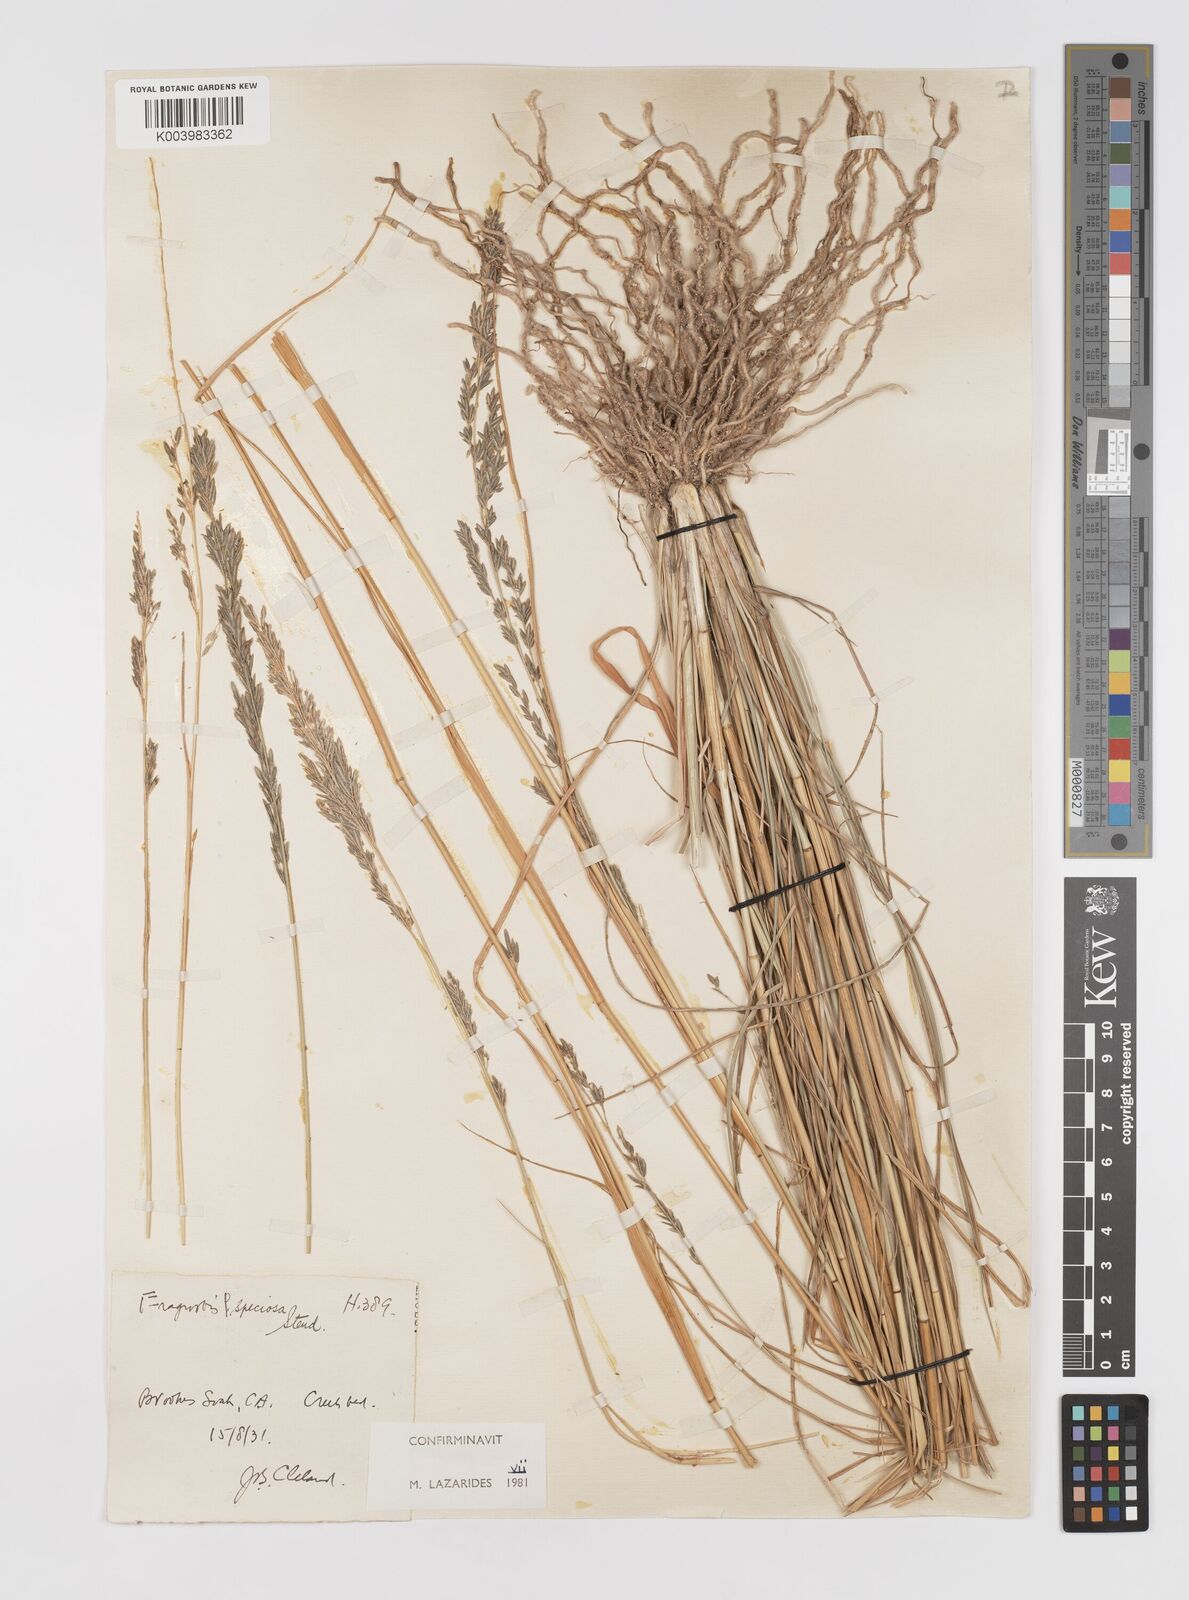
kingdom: Plantae
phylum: Tracheophyta
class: Liliopsida
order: Poales
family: Poaceae
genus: Eragrostis
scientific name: Eragrostis speciosa
